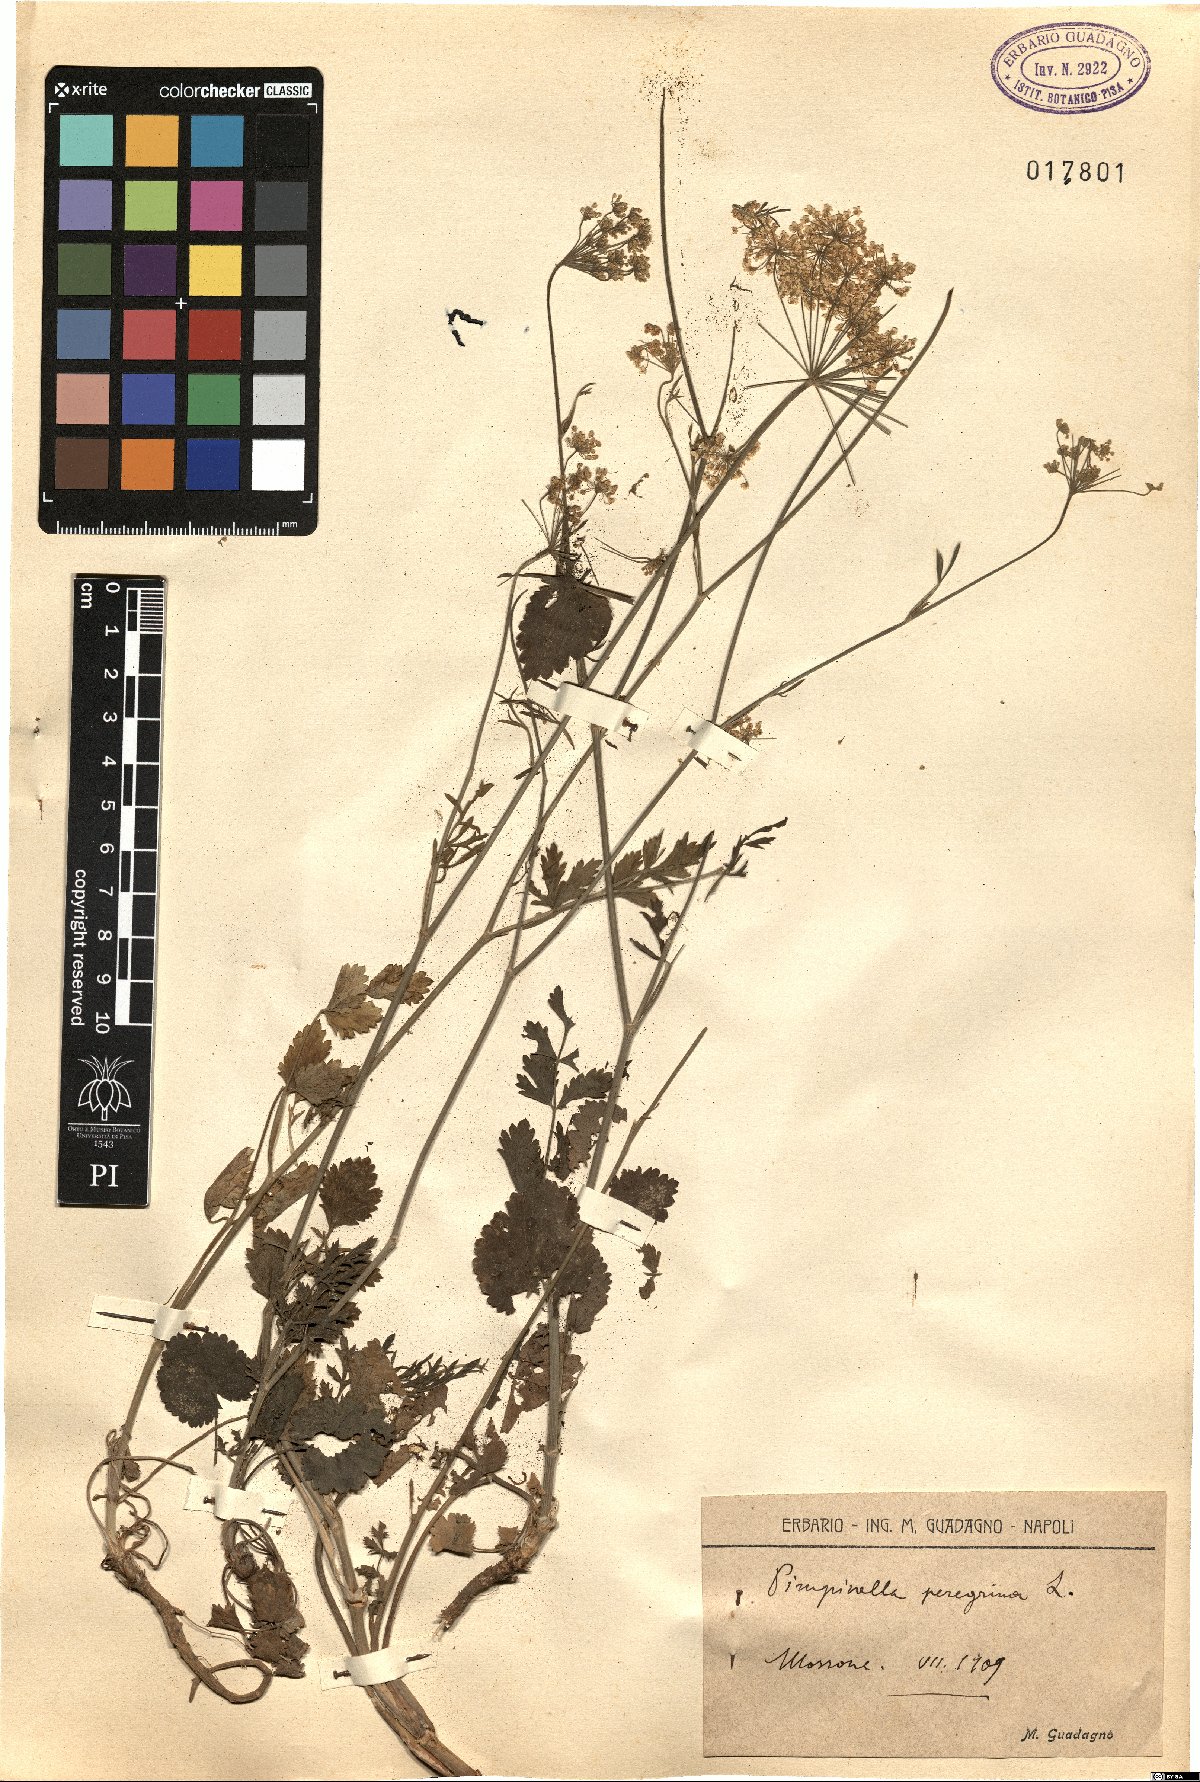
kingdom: Plantae
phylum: Tracheophyta
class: Magnoliopsida
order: Apiales
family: Apiaceae
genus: Pimpinella
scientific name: Pimpinella peregrina
